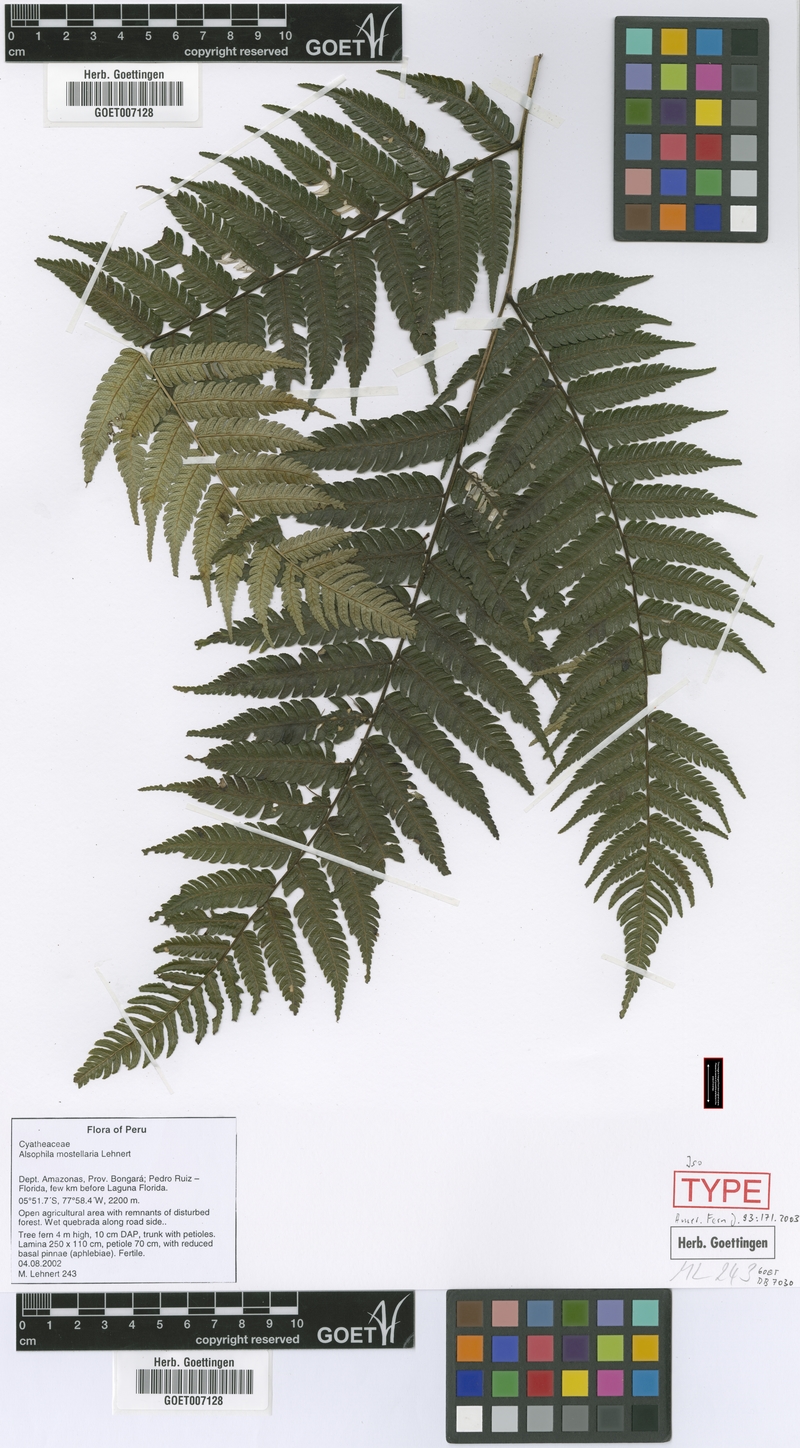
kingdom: Plantae
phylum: Tracheophyta
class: Polypodiopsida
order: Cyatheales
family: Cyatheaceae
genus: Alsophila
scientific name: Alsophila mostellaria
